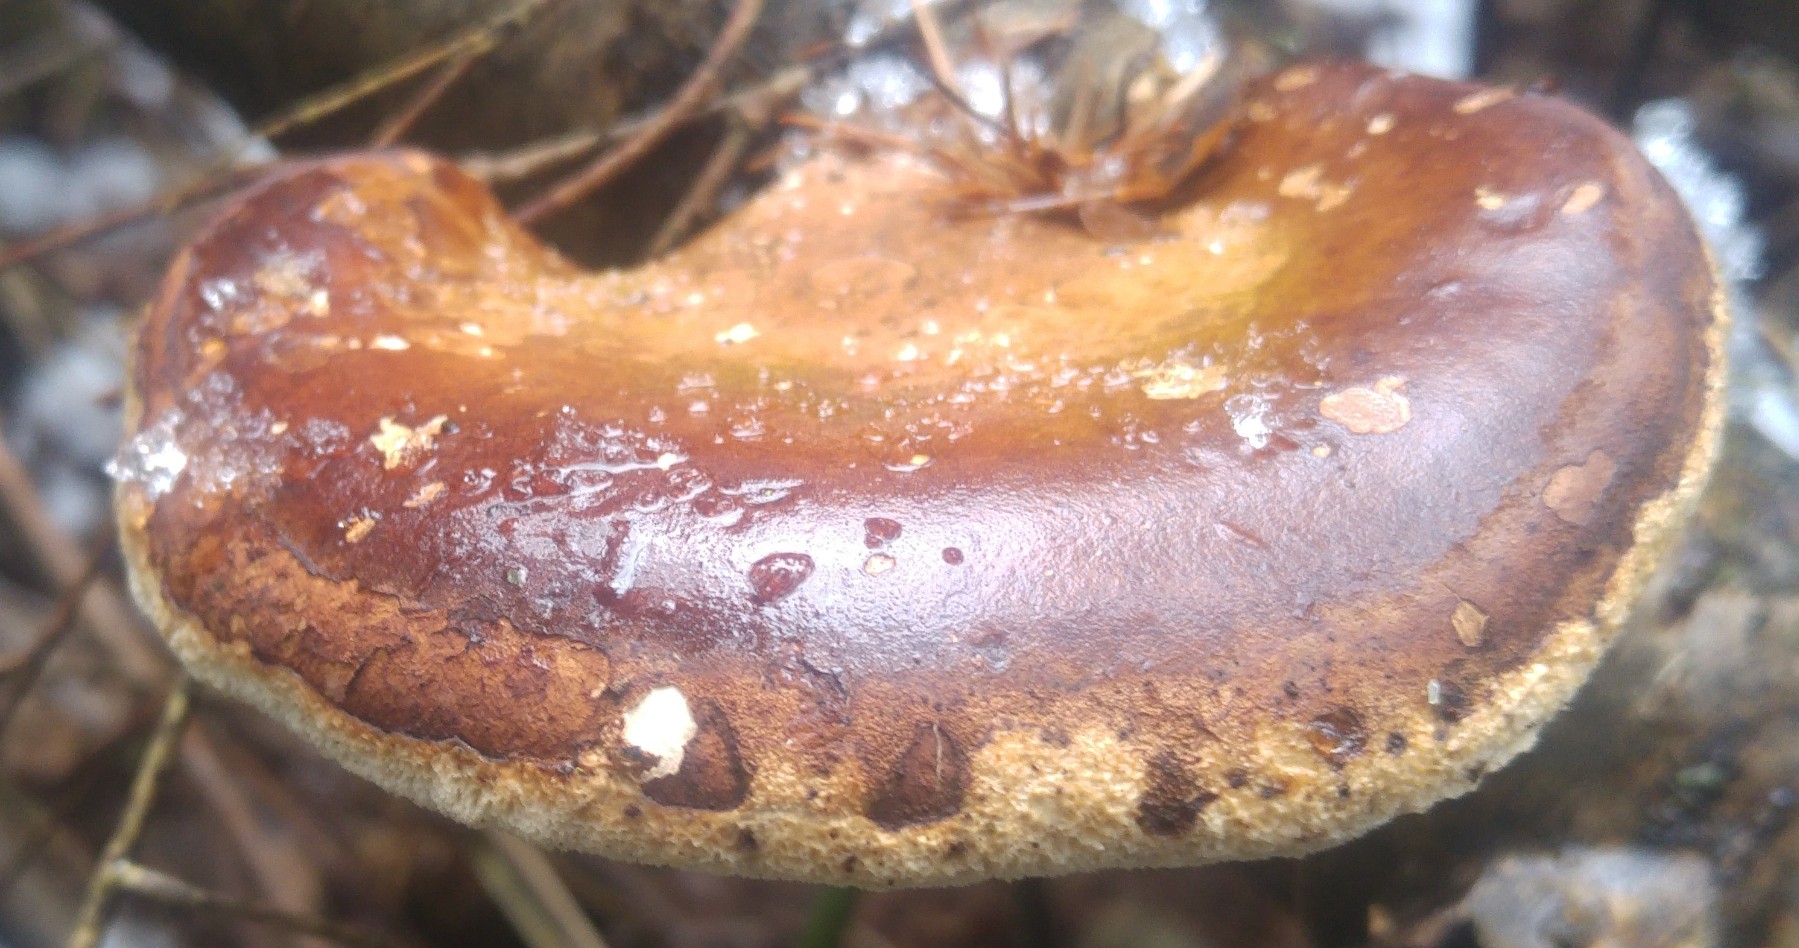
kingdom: Fungi
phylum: Basidiomycota
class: Agaricomycetes
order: Polyporales
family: Fomitopsidaceae
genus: Fomitopsis
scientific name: Fomitopsis betulina
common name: birkeporesvamp
